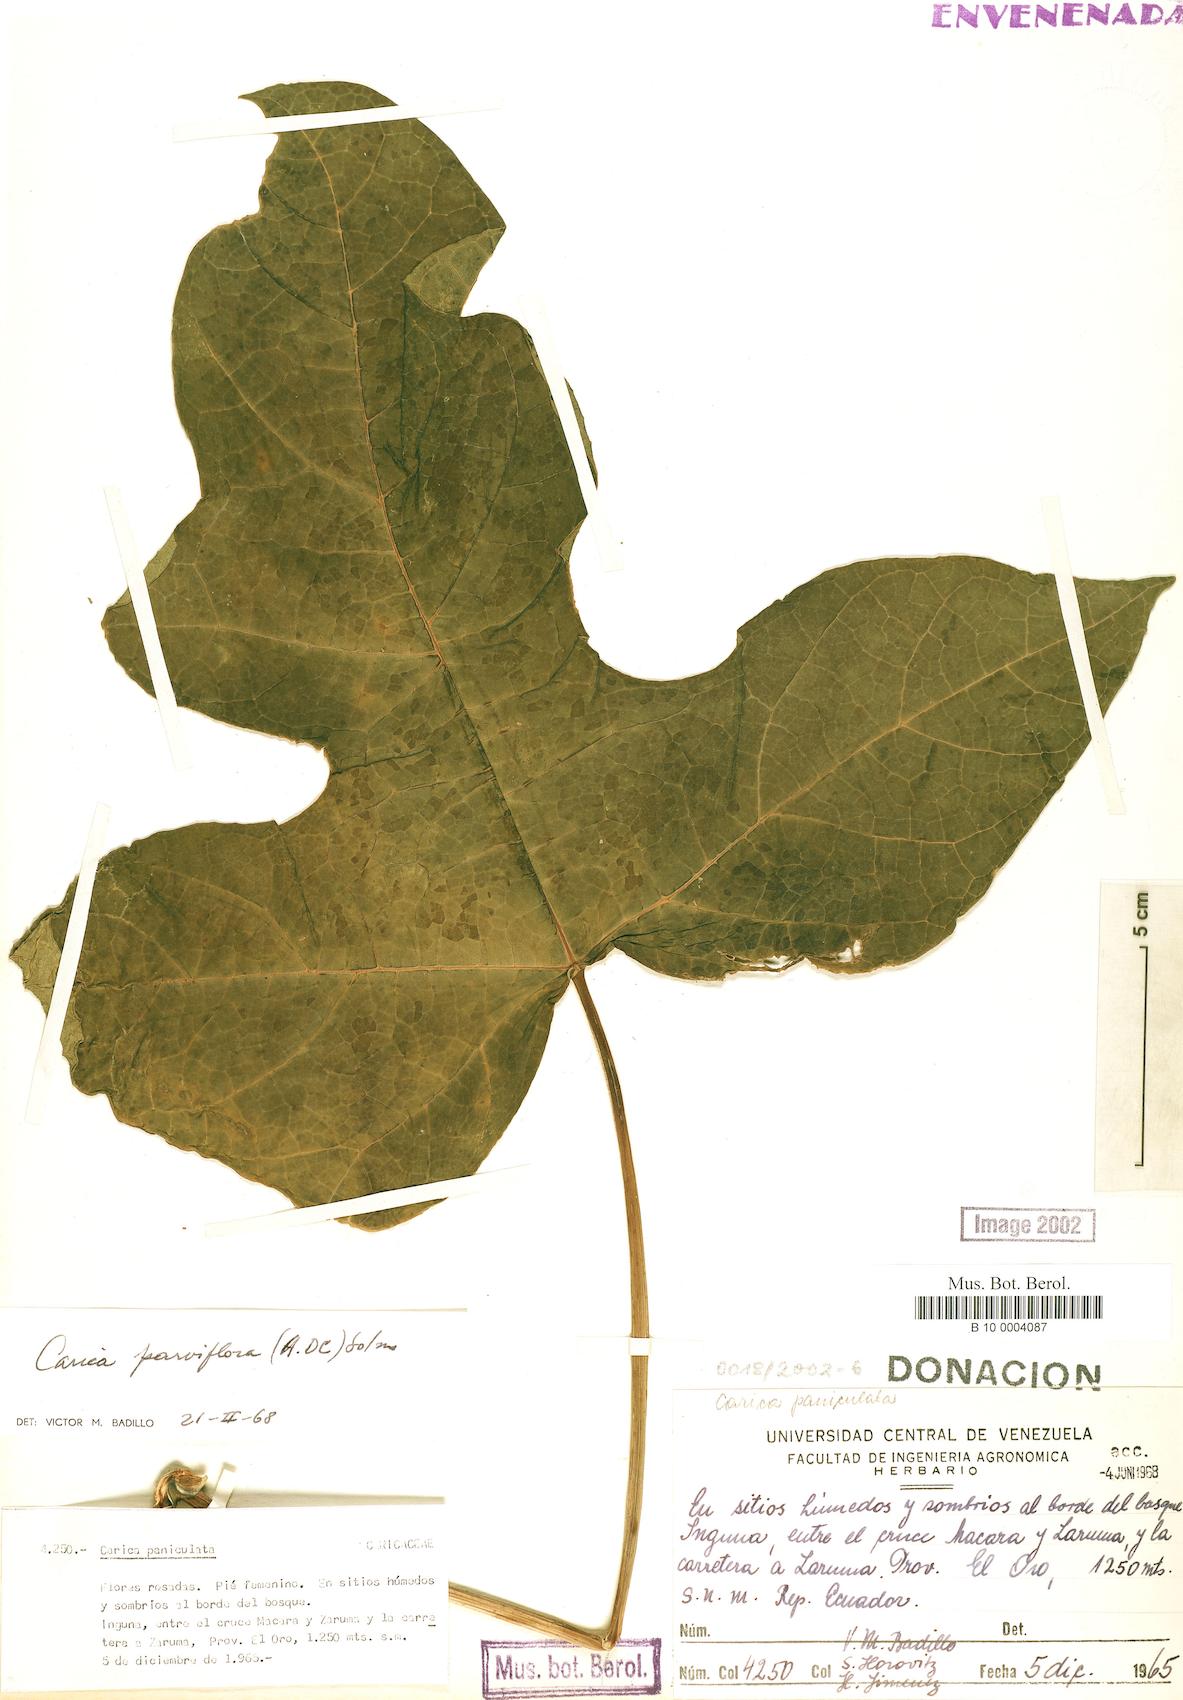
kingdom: Plantae
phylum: Tracheophyta
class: Magnoliopsida
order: Brassicales
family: Caricaceae
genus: Vasconcellea
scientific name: Vasconcellea parviflora
